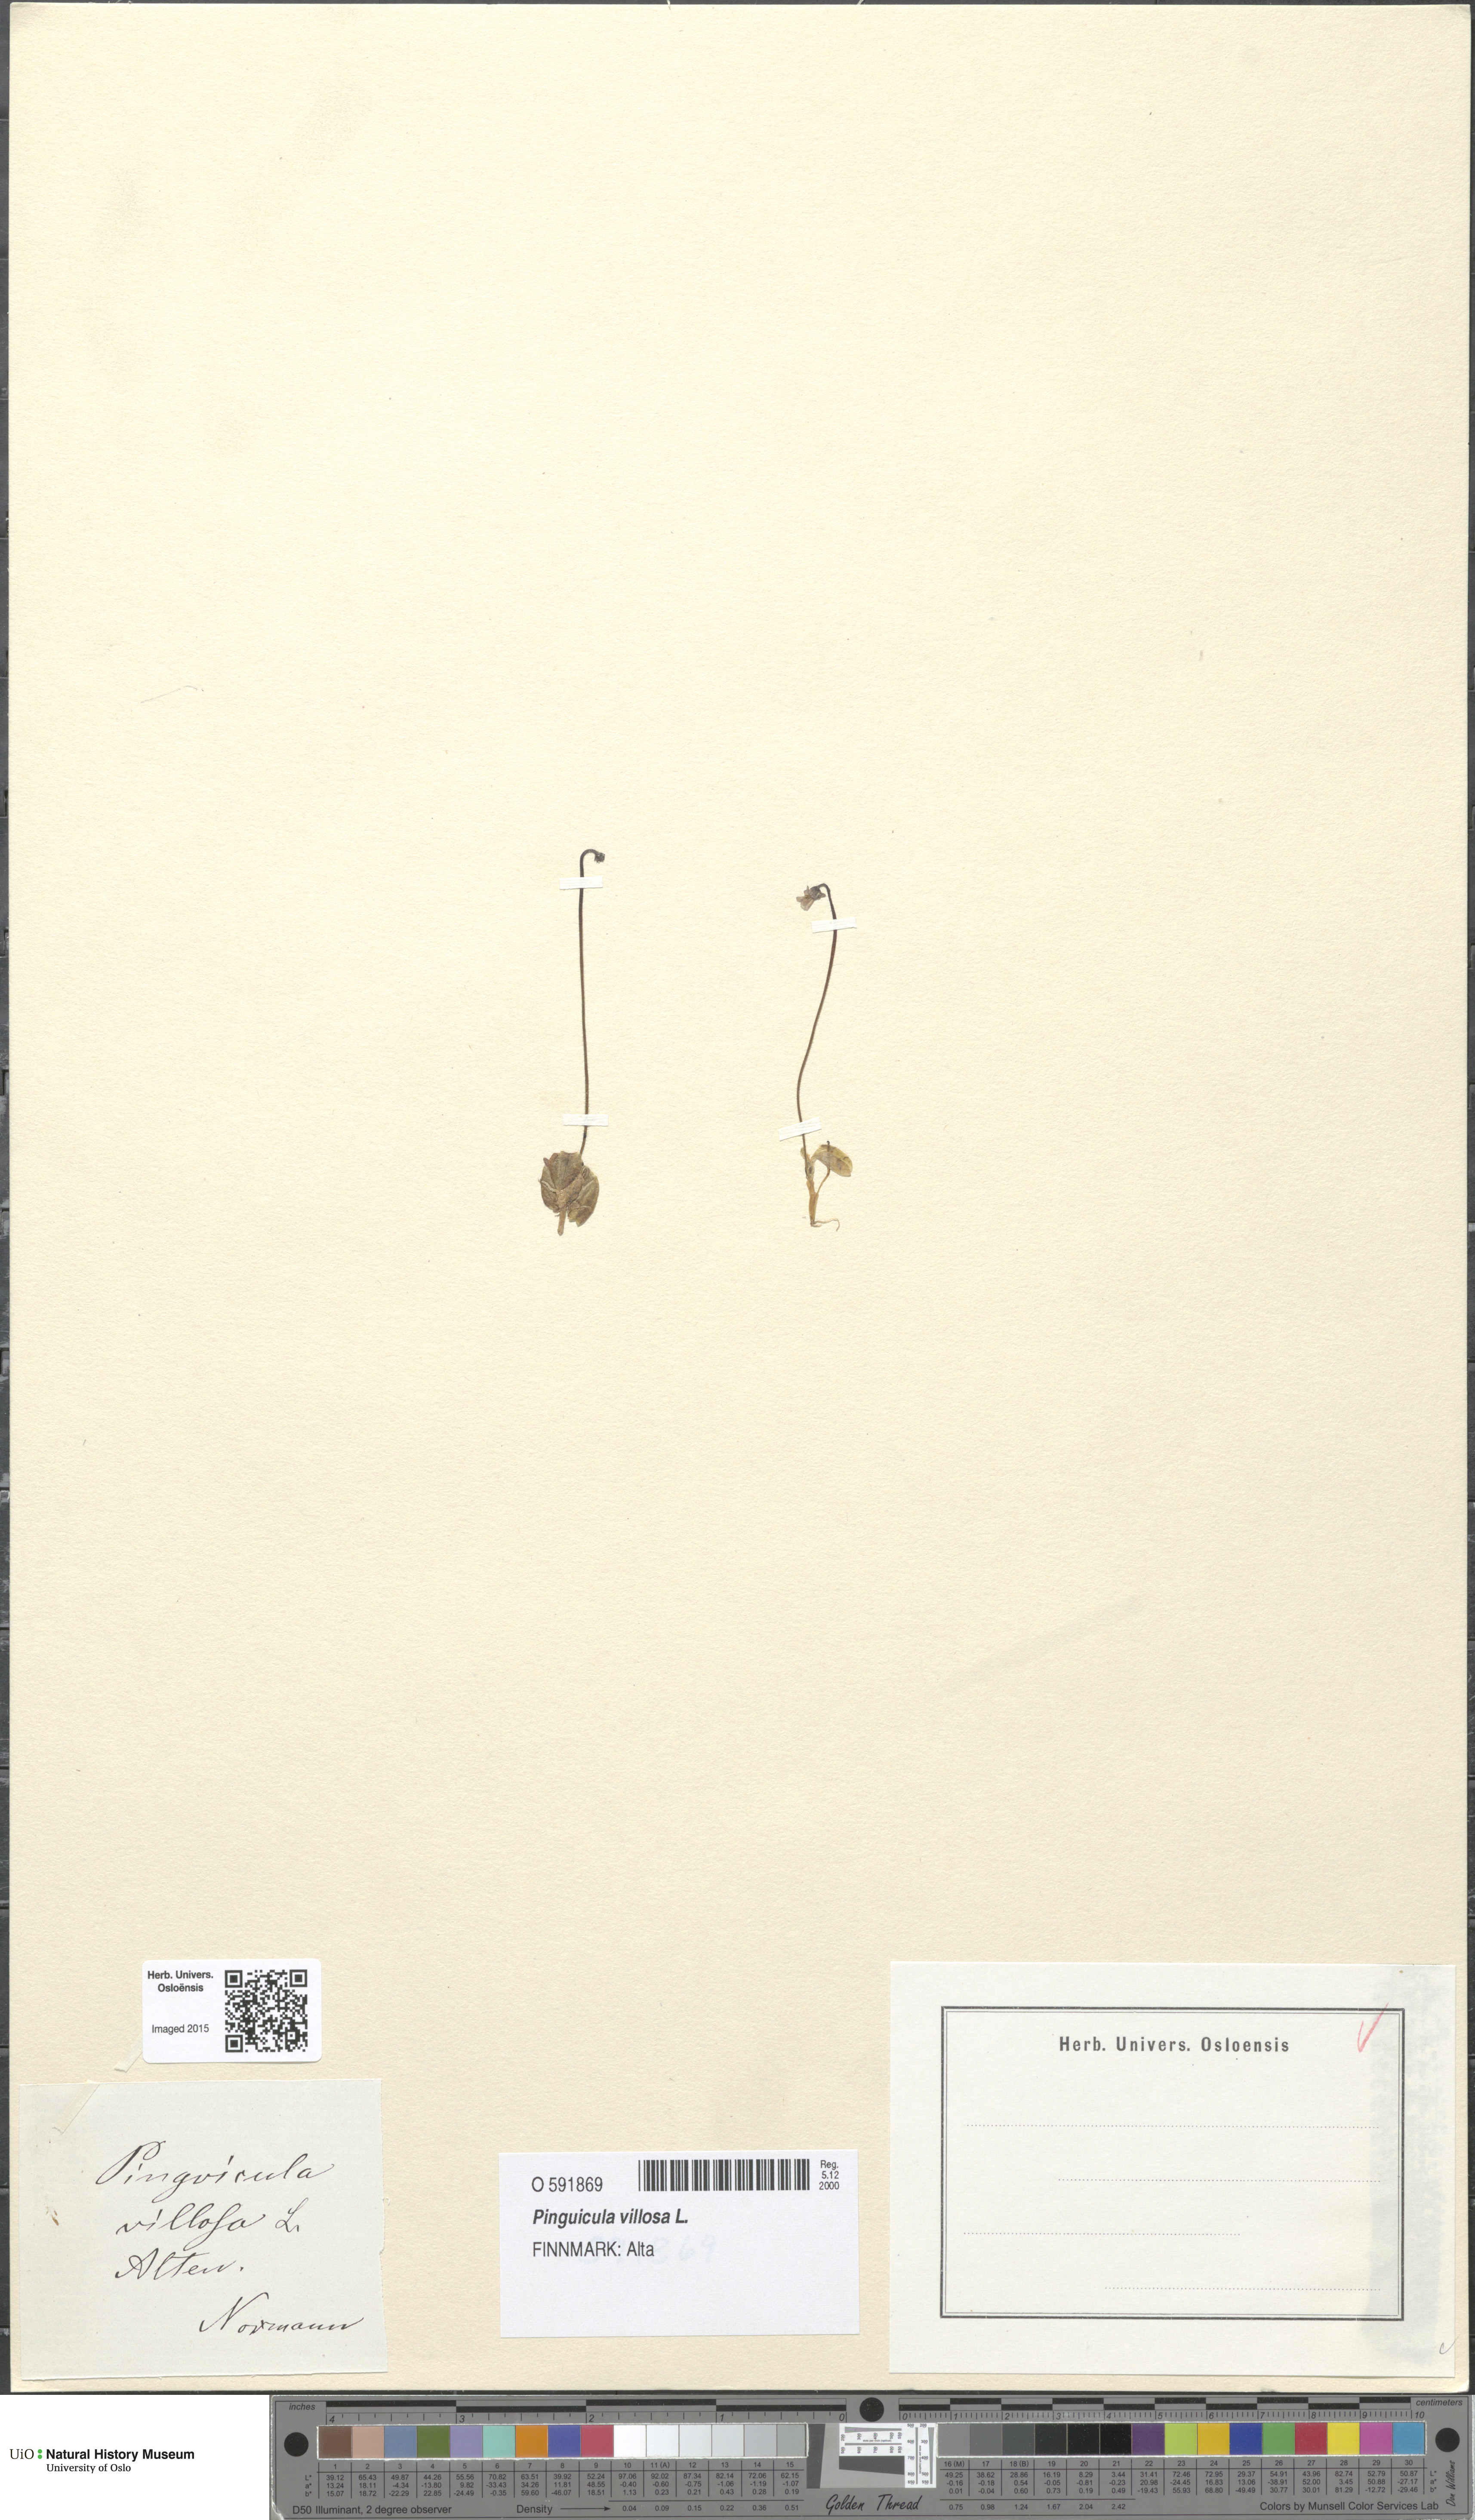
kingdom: Plantae
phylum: Tracheophyta
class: Magnoliopsida
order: Lamiales
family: Lentibulariaceae
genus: Pinguicula
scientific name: Pinguicula villosa
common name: Hairy butterwort
